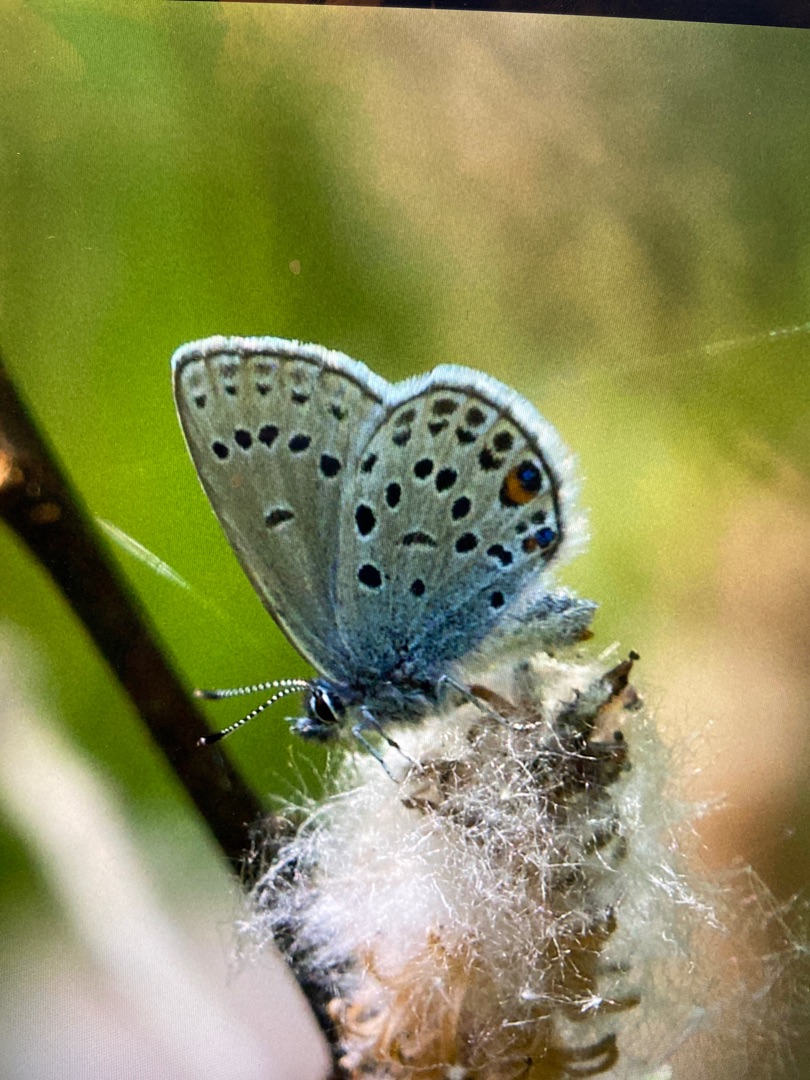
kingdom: Animalia
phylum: Arthropoda
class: Insecta
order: Lepidoptera
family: Lycaenidae
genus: Vacciniina
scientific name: Vacciniina optilete
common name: Bølleblåfugl
